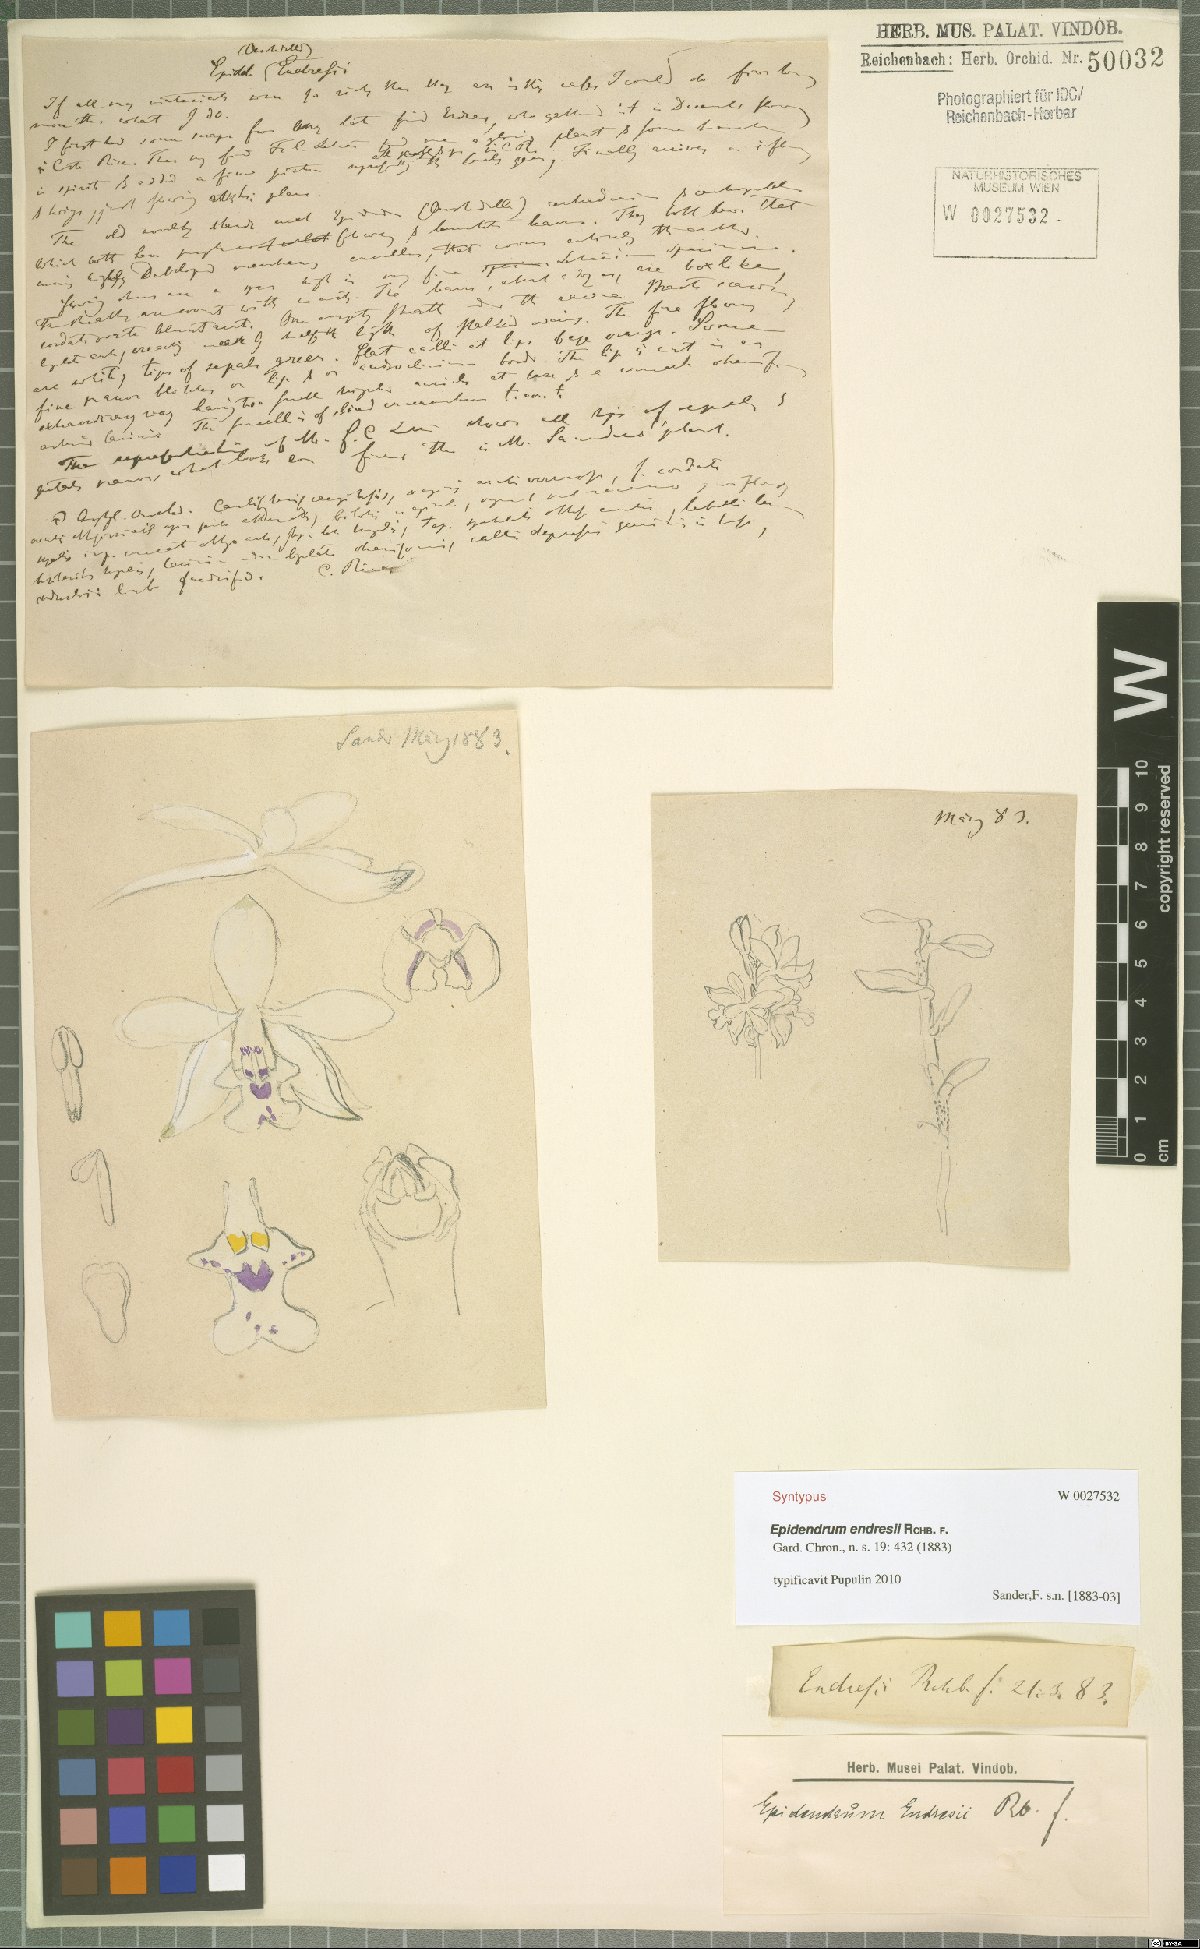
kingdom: Plantae
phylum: Tracheophyta
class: Liliopsida
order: Asparagales
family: Orchidaceae
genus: Epidendrum
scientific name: Epidendrum endresii
